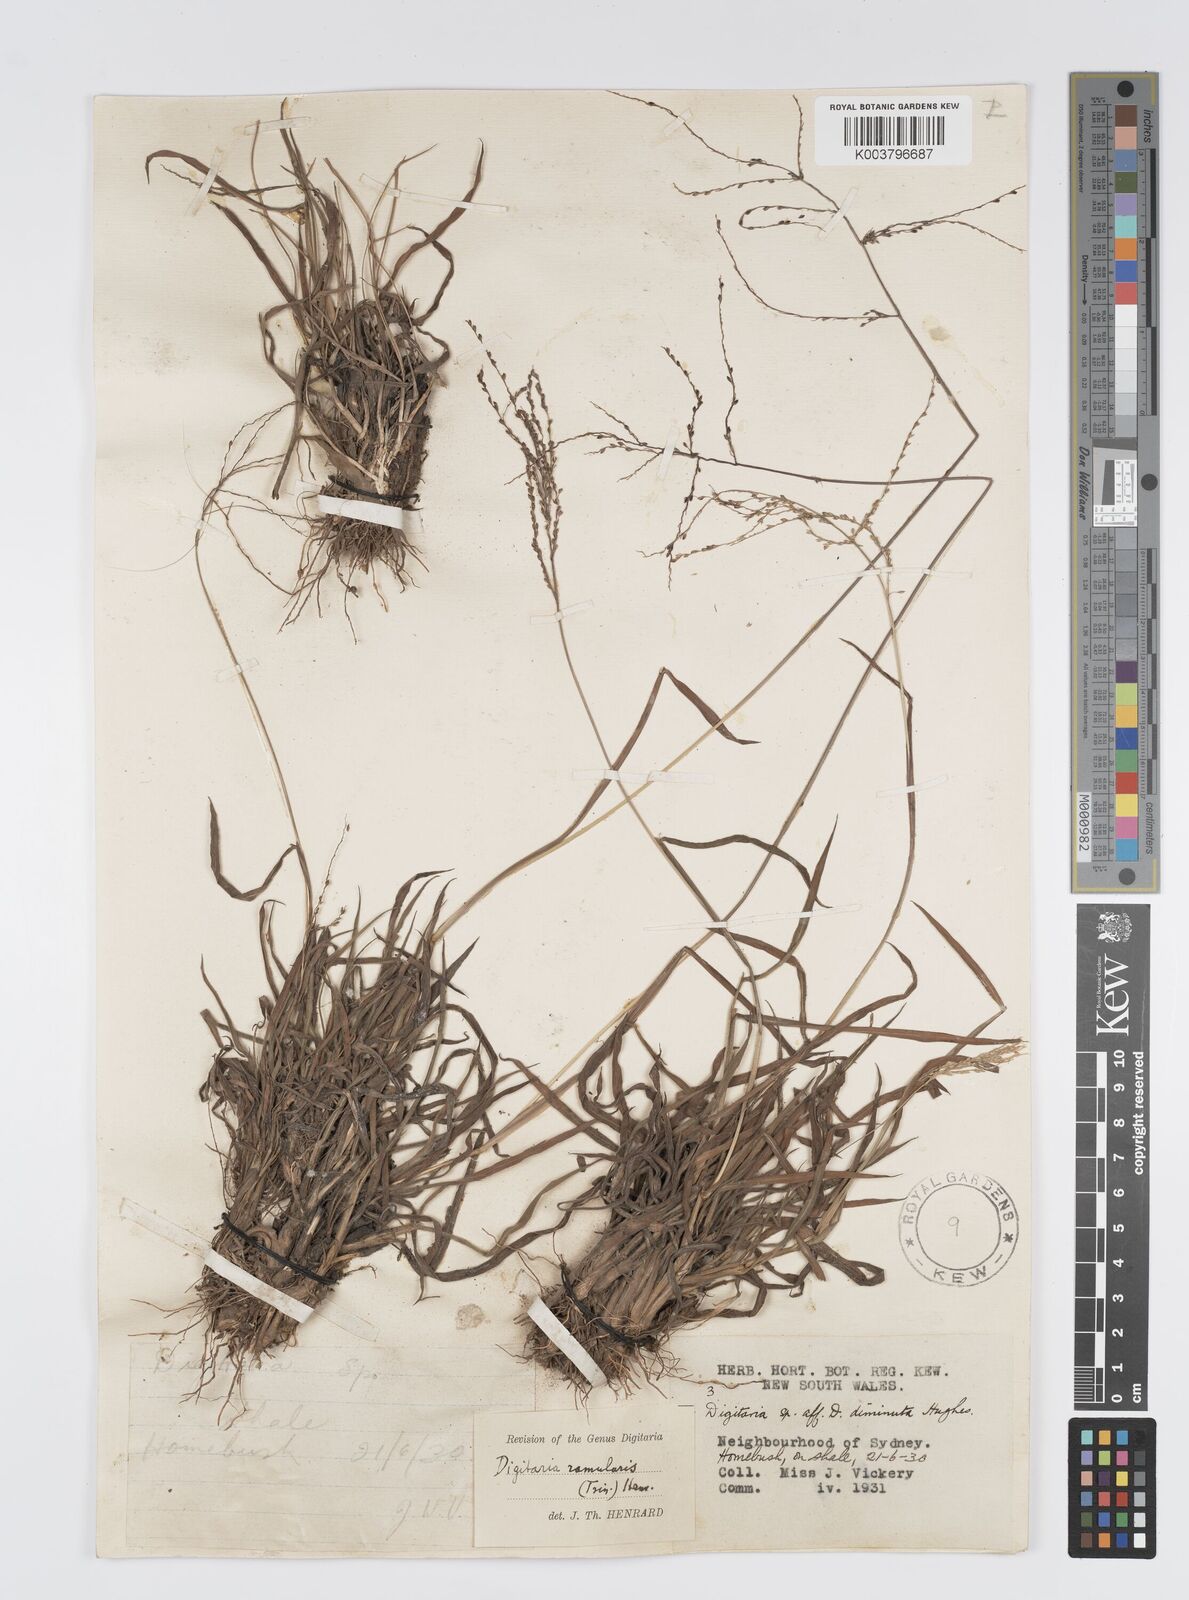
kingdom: Plantae
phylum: Tracheophyta
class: Liliopsida
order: Poales
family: Poaceae
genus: Digitaria
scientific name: Digitaria ramularis
